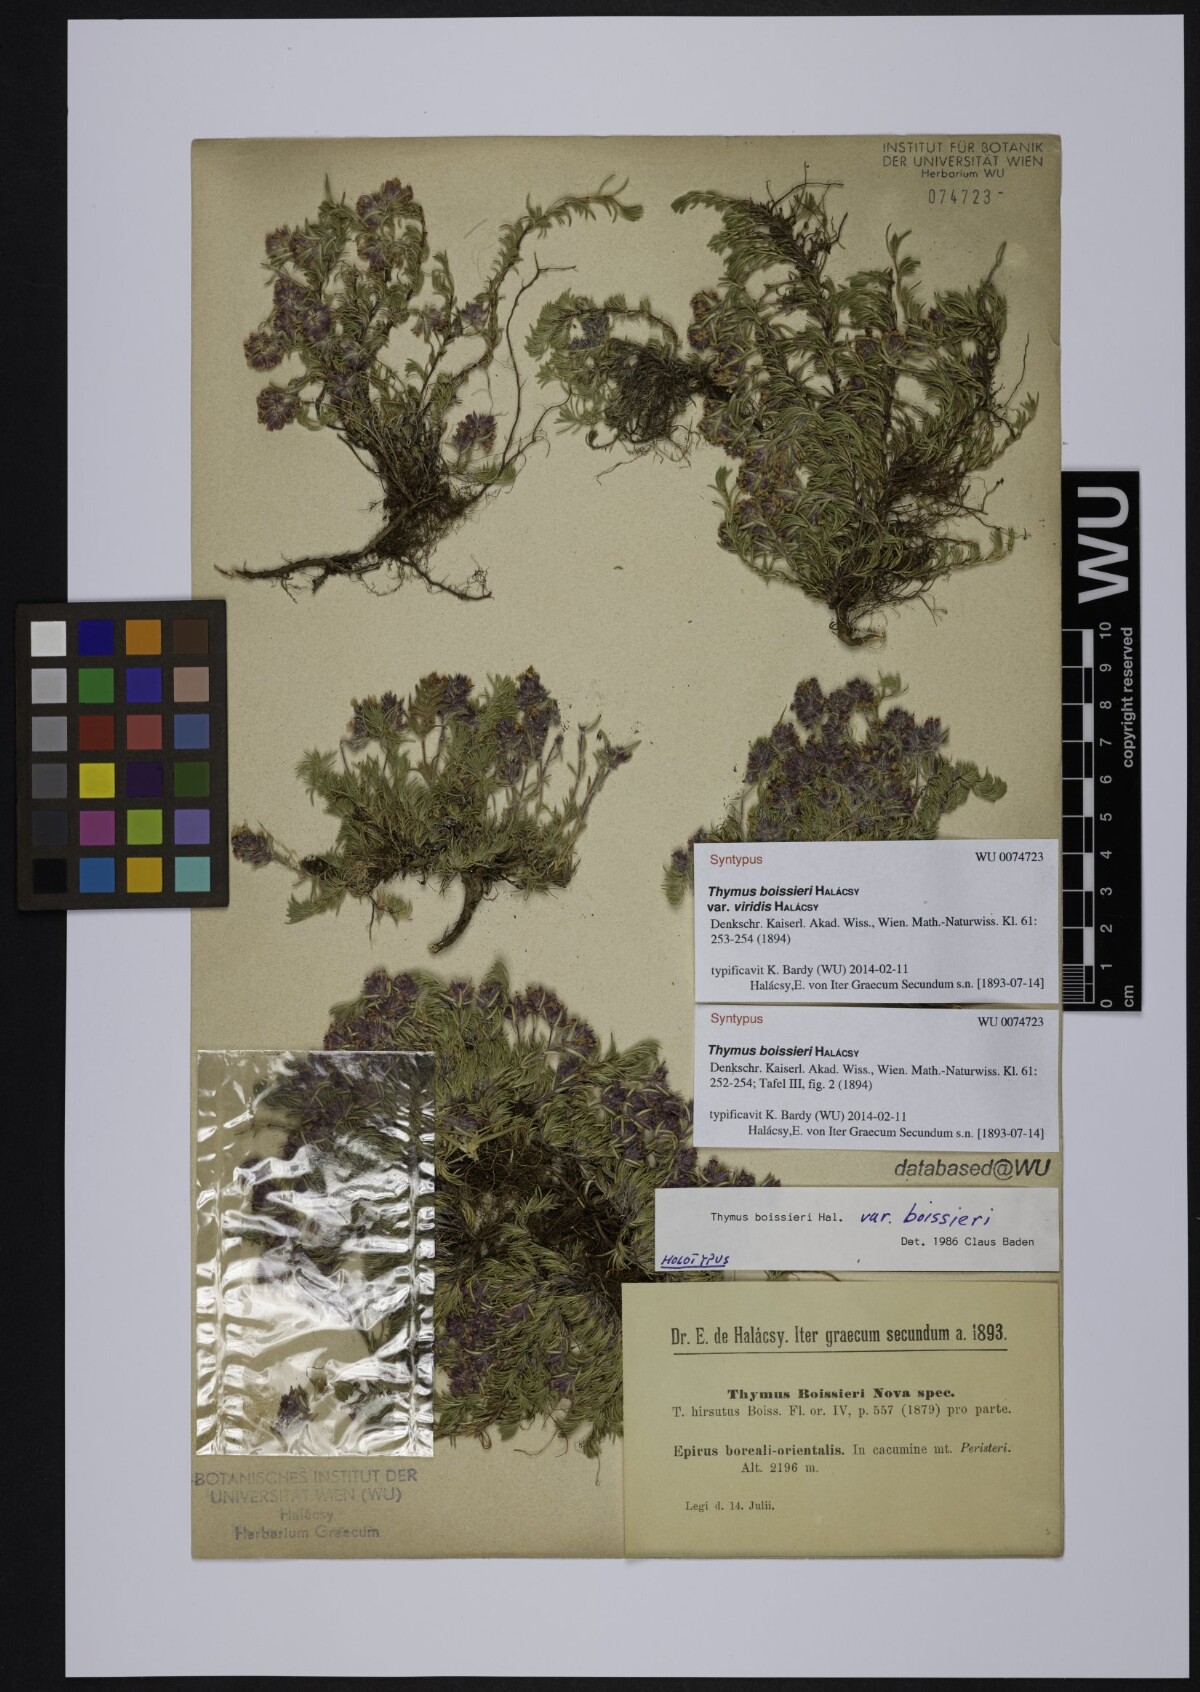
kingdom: Plantae
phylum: Tracheophyta
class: Magnoliopsida
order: Lamiales
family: Lamiaceae
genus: Thymus
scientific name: Thymus boissieri
